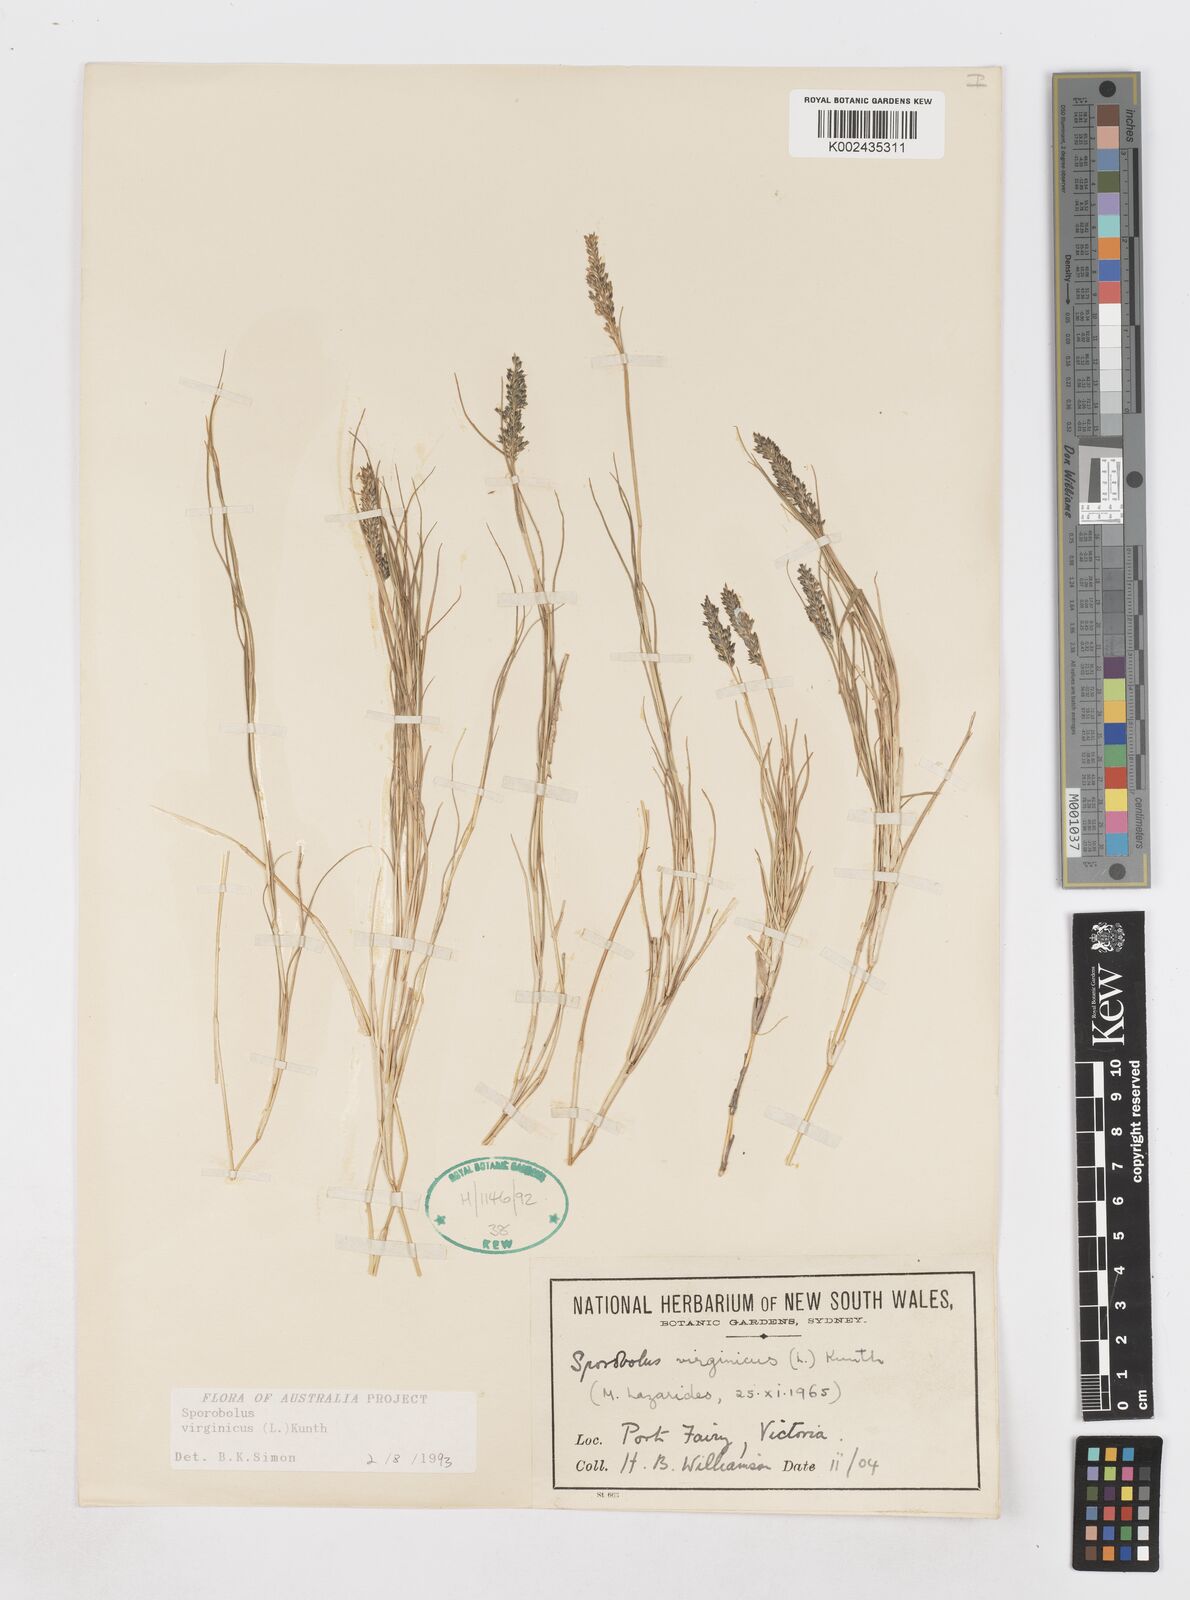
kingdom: Plantae
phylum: Tracheophyta
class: Liliopsida
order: Poales
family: Poaceae
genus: Sporobolus
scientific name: Sporobolus virginicus
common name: Beach dropseed
